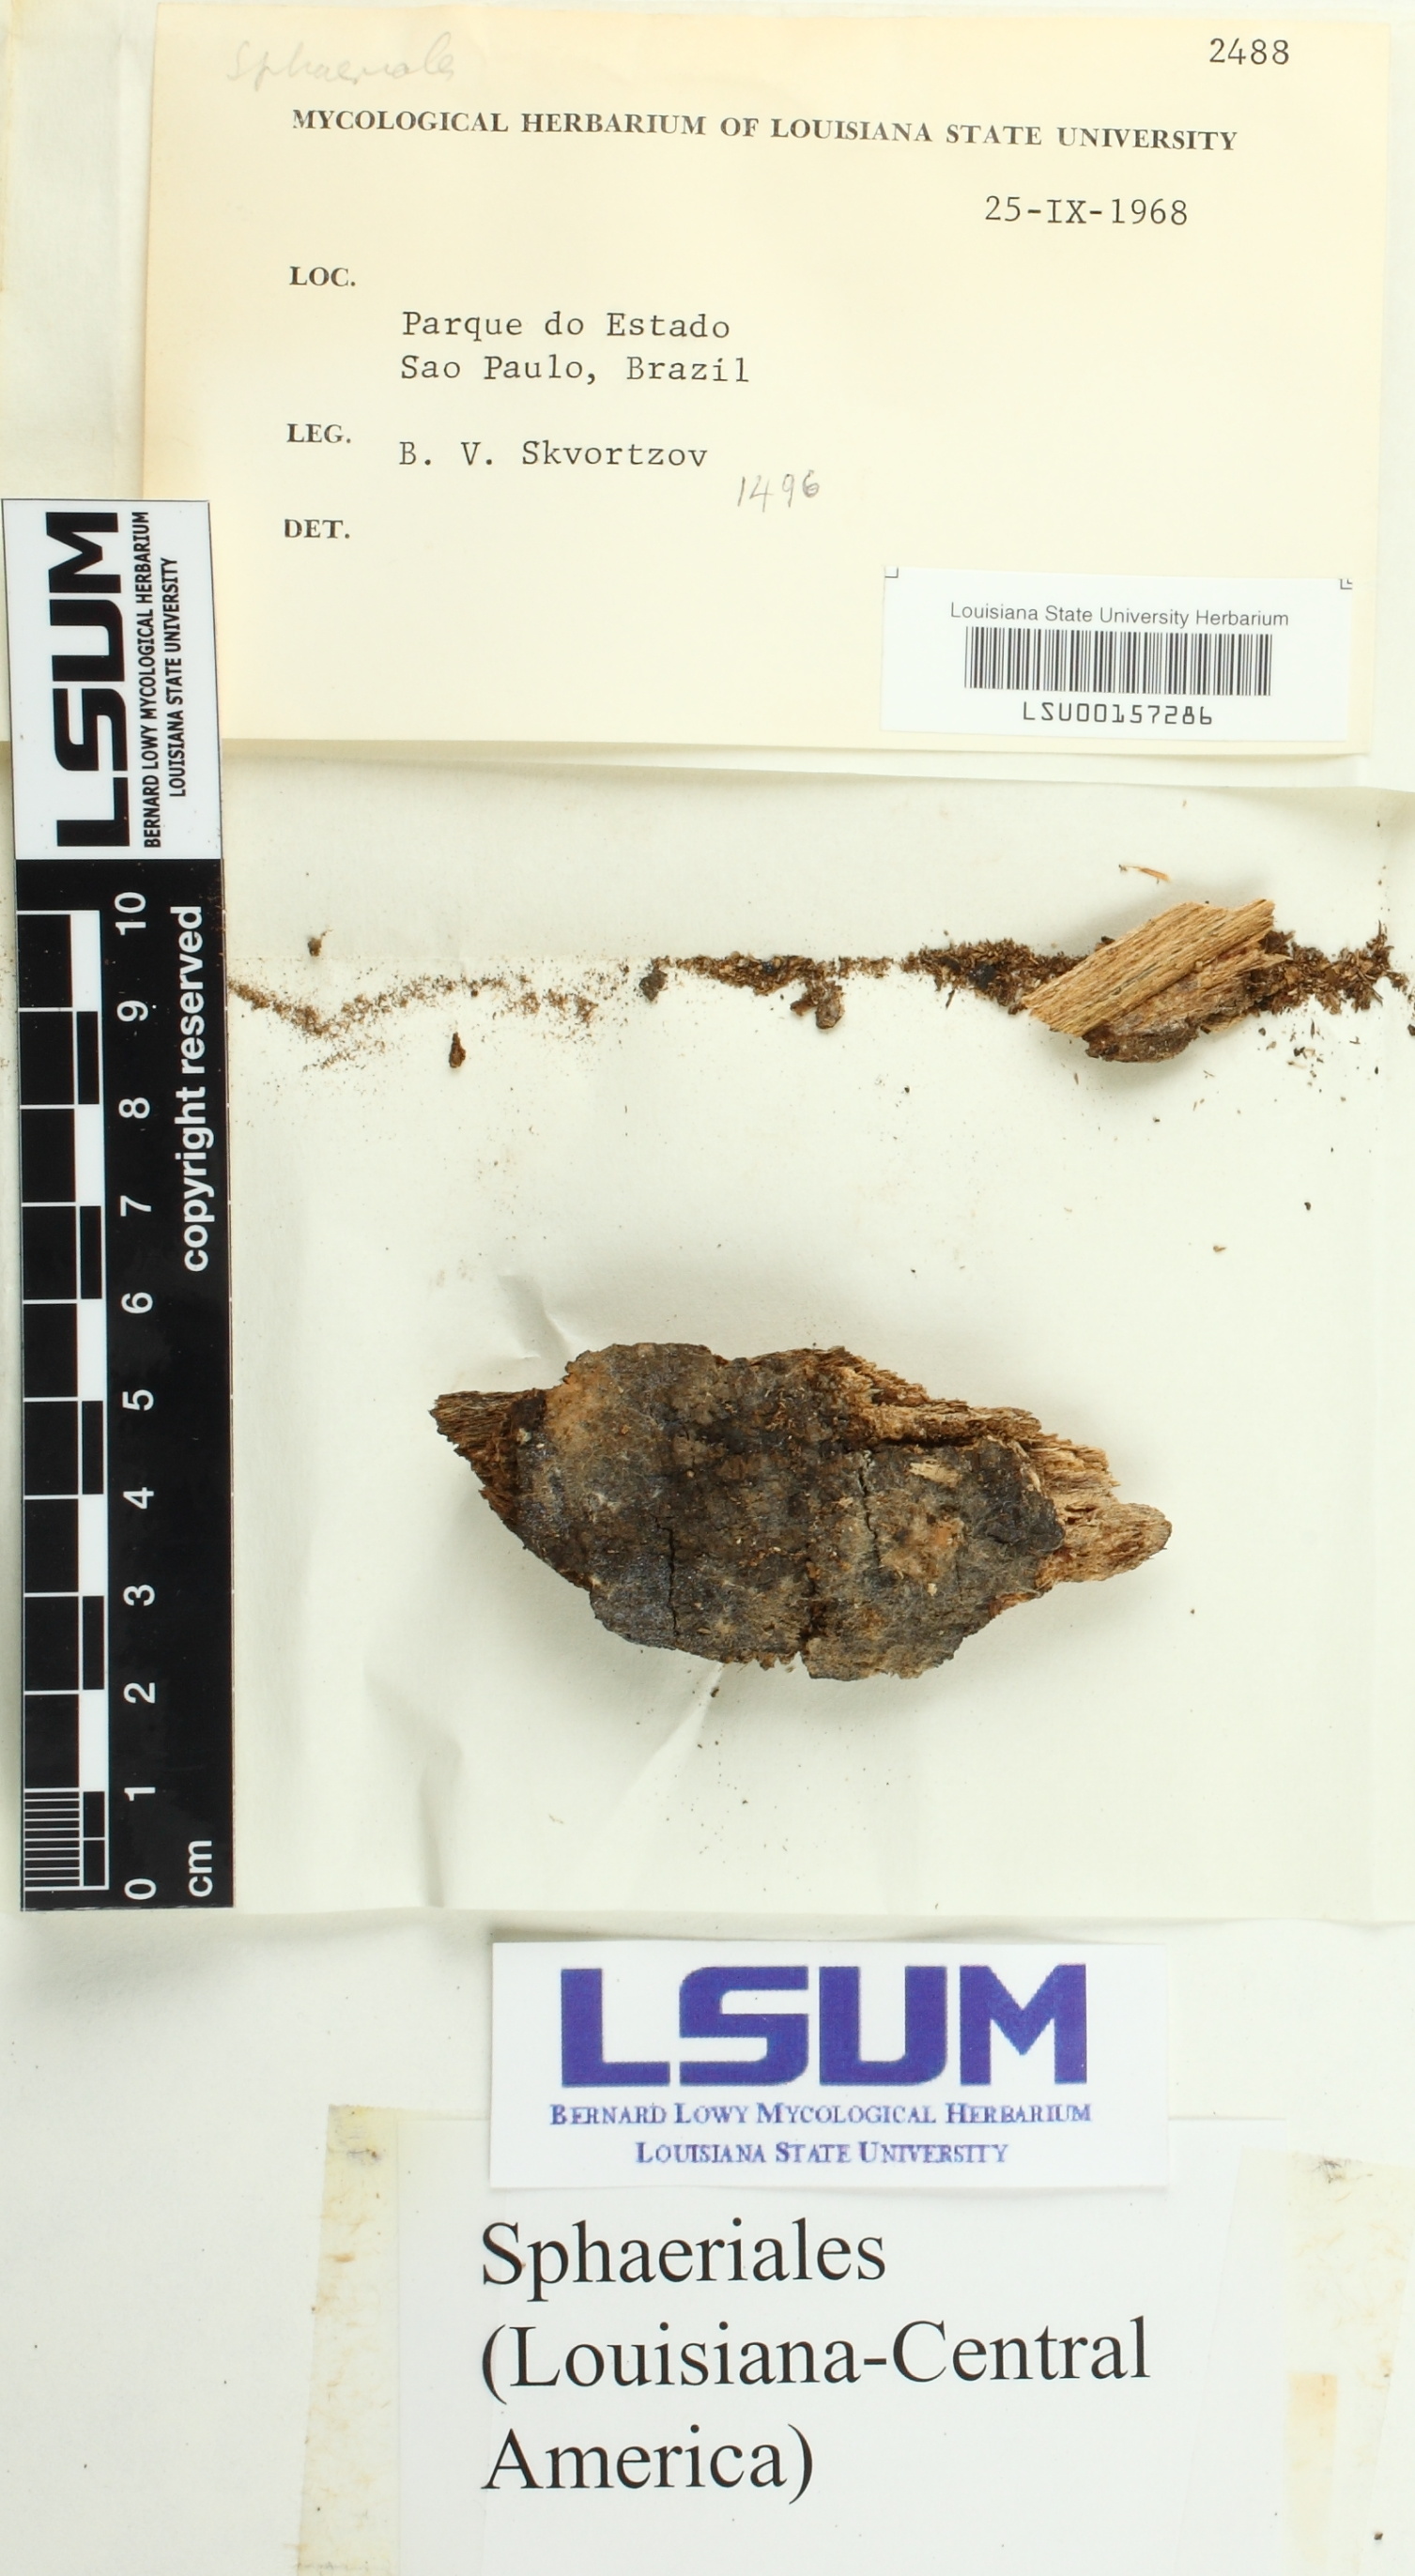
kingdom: Fungi
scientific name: Fungi
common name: Fungi
